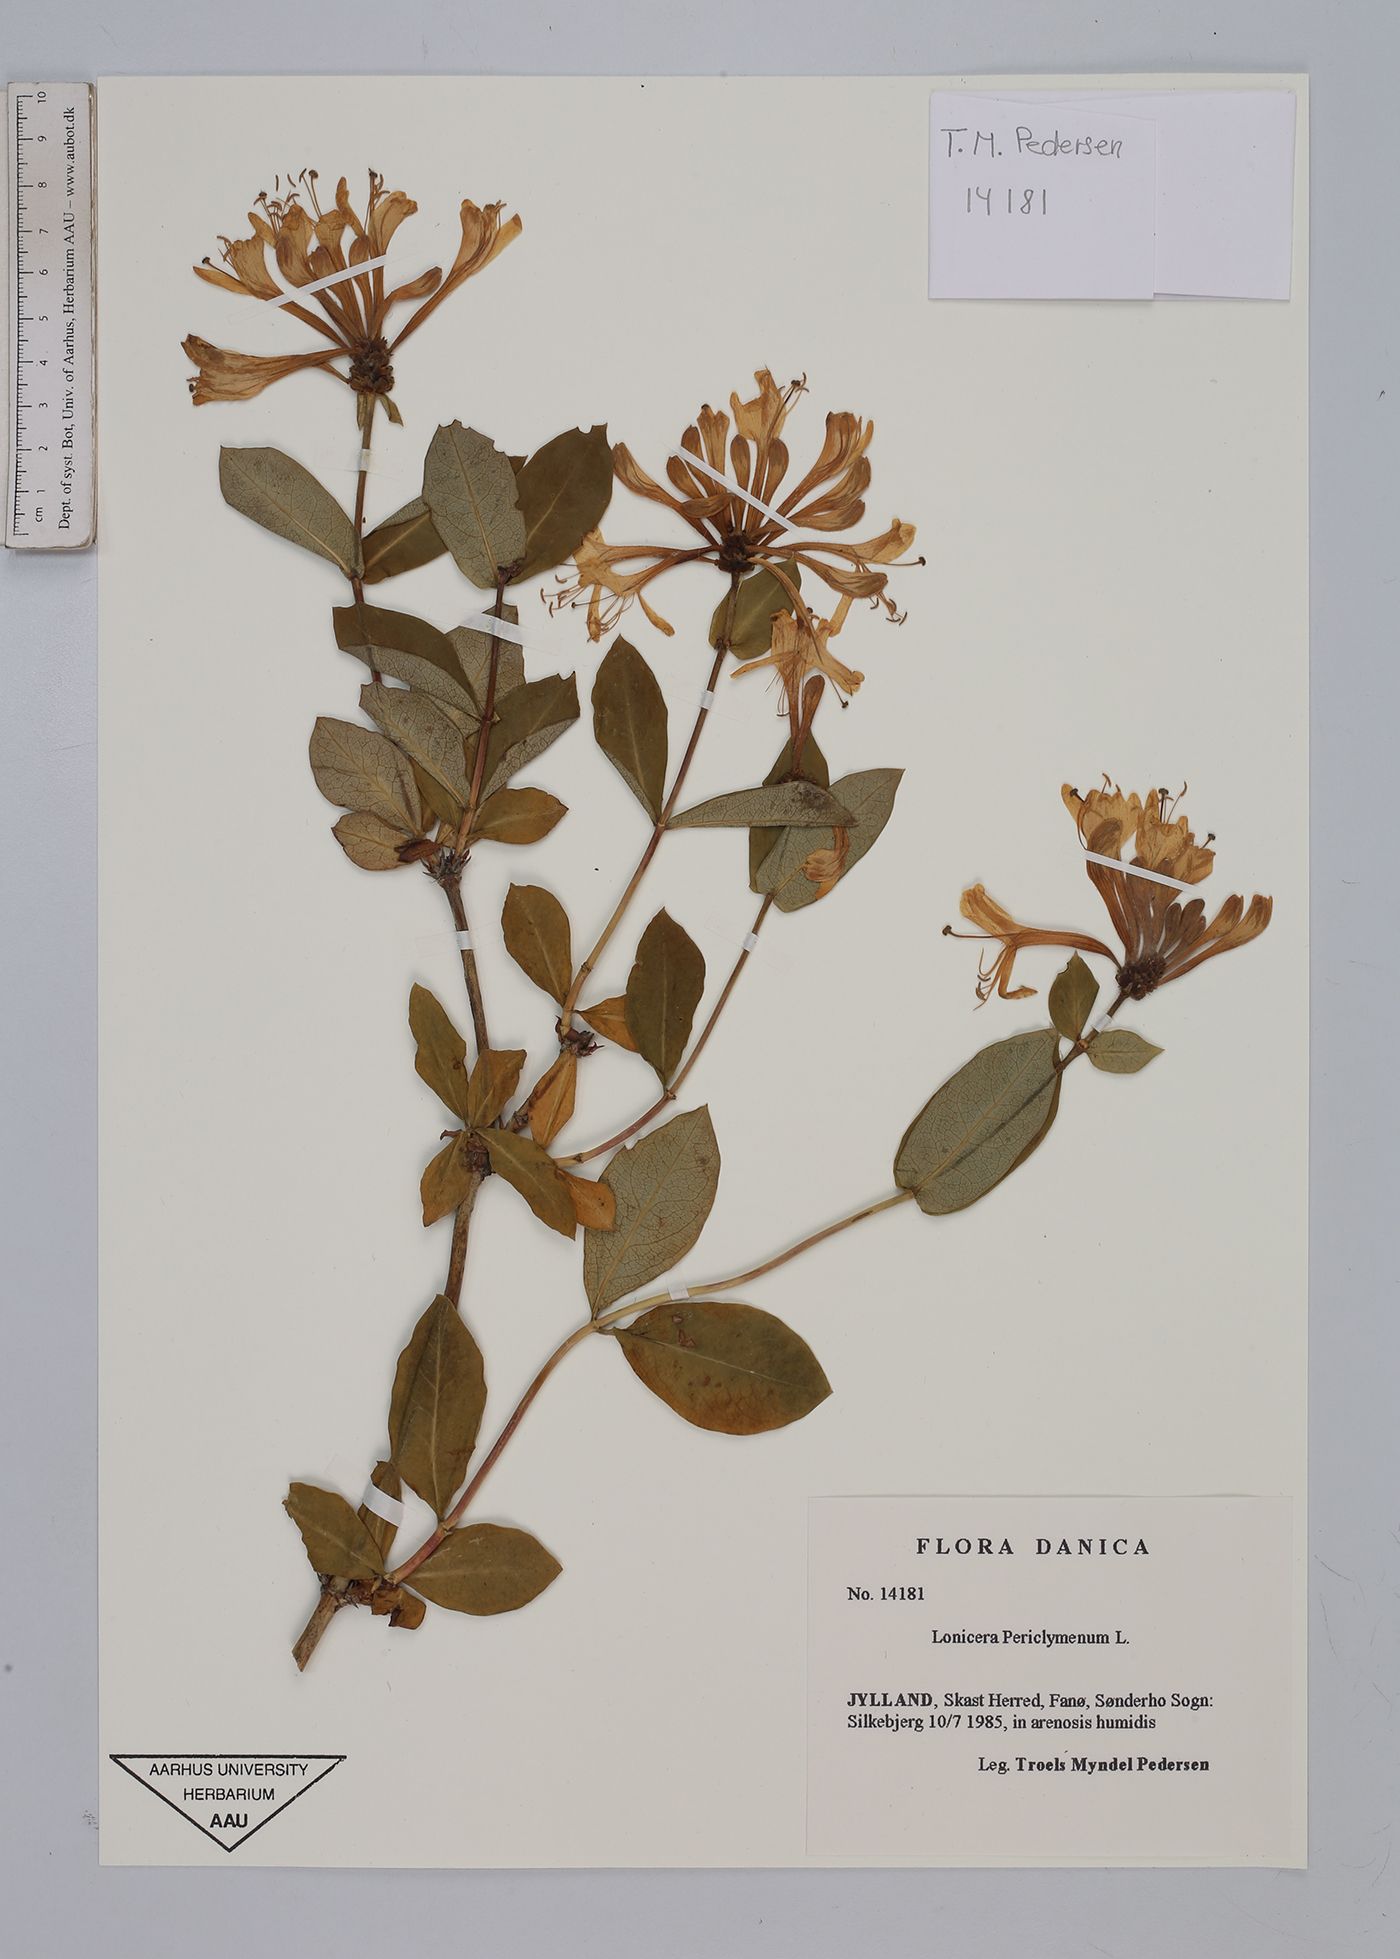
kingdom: Plantae
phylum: Tracheophyta
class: Magnoliopsida
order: Dipsacales
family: Caprifoliaceae
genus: Lonicera
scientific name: Lonicera periclymenum
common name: European honeysuckle
